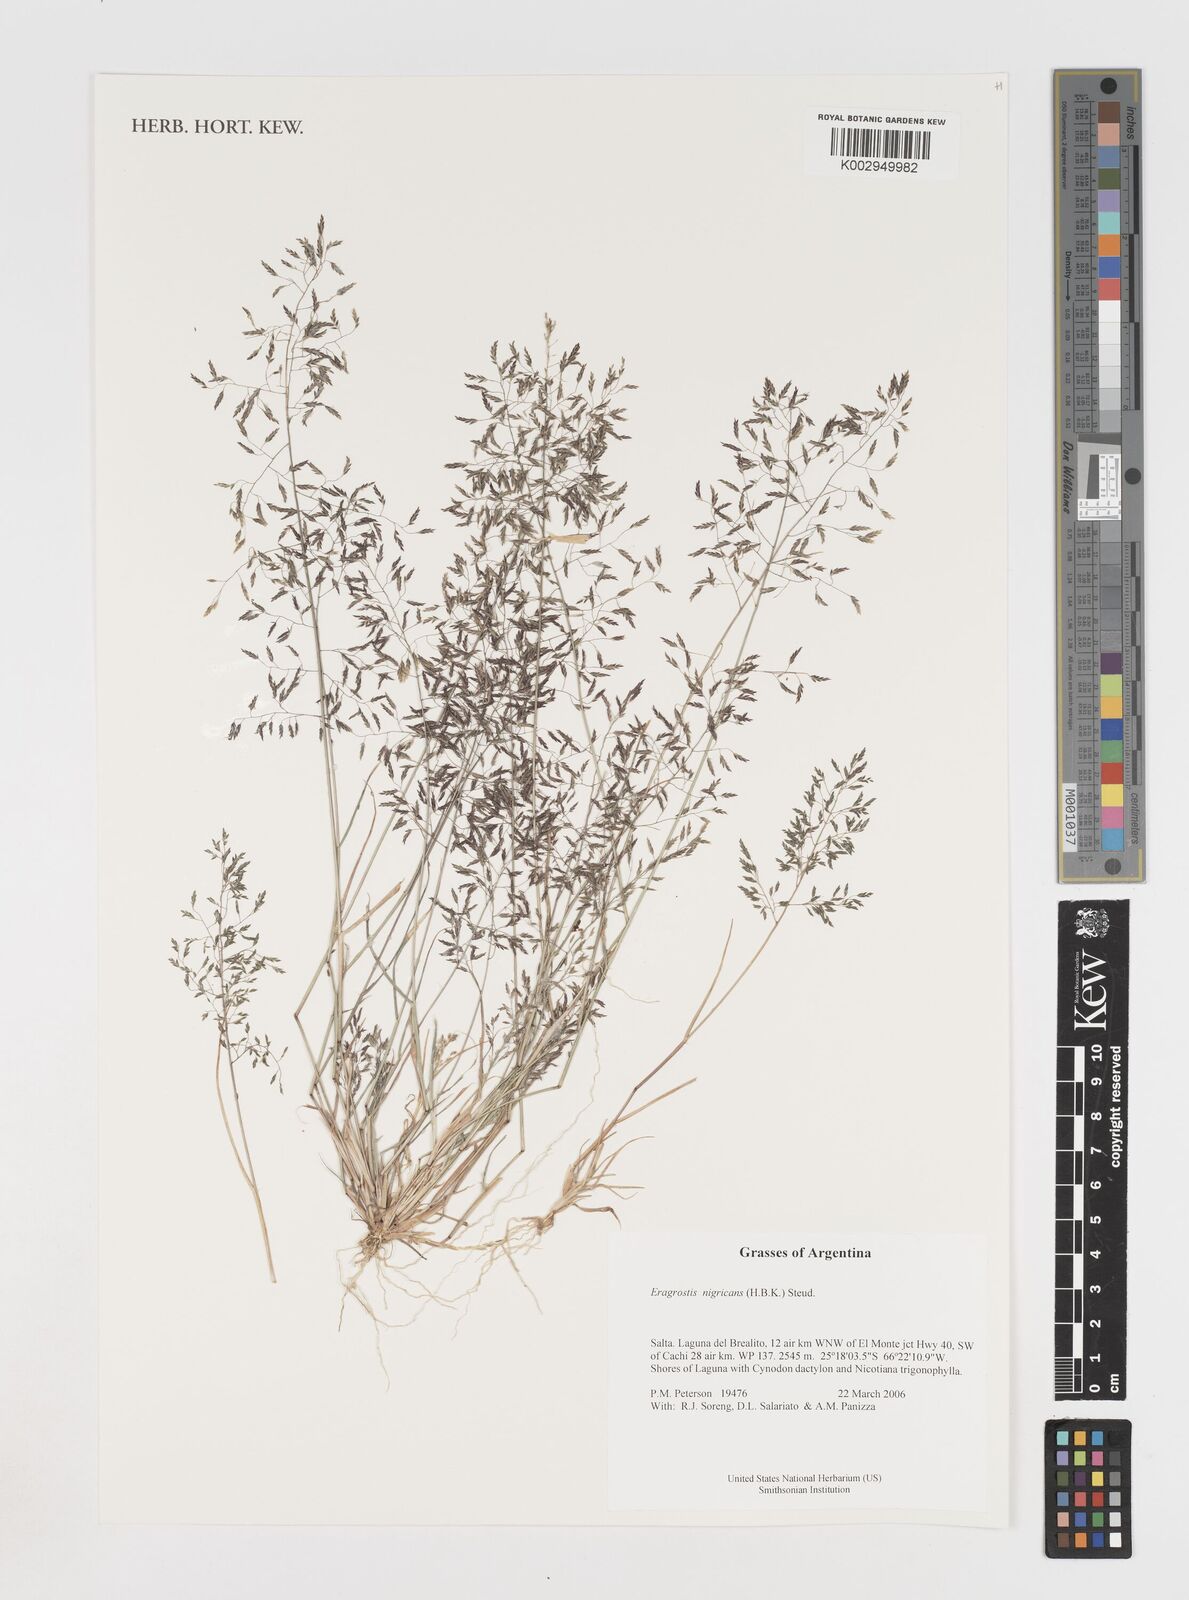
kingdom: Plantae
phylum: Tracheophyta
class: Liliopsida
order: Poales
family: Poaceae
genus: Eragrostis
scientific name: Eragrostis nigricans
